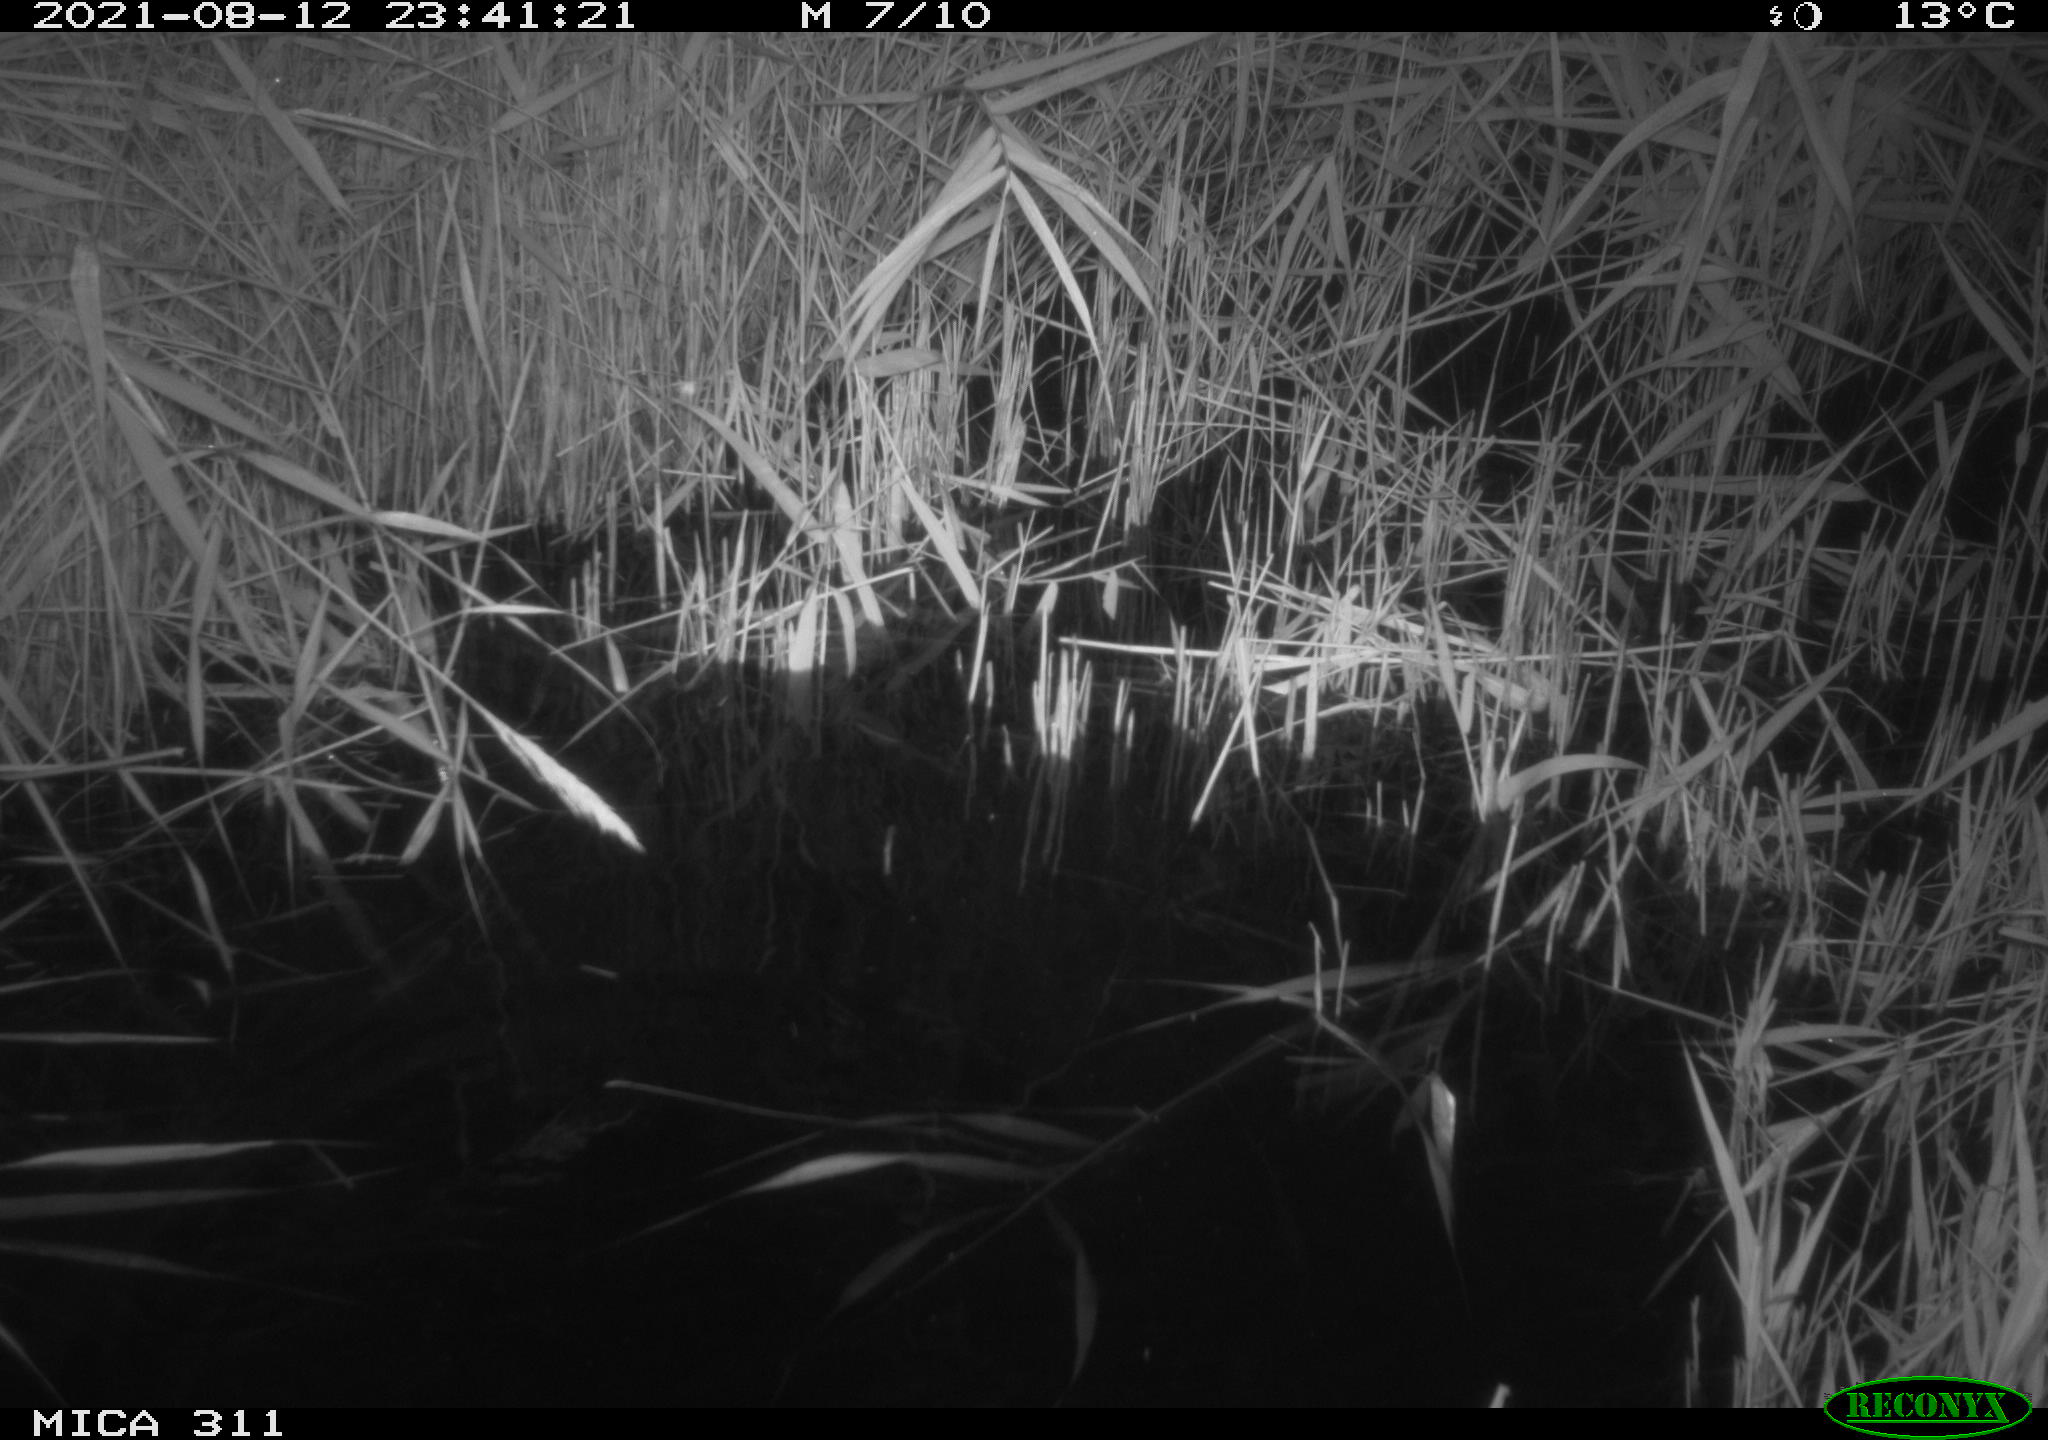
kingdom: Animalia
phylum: Chordata
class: Mammalia
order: Rodentia
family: Muridae
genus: Rattus
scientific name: Rattus norvegicus
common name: Brown rat
